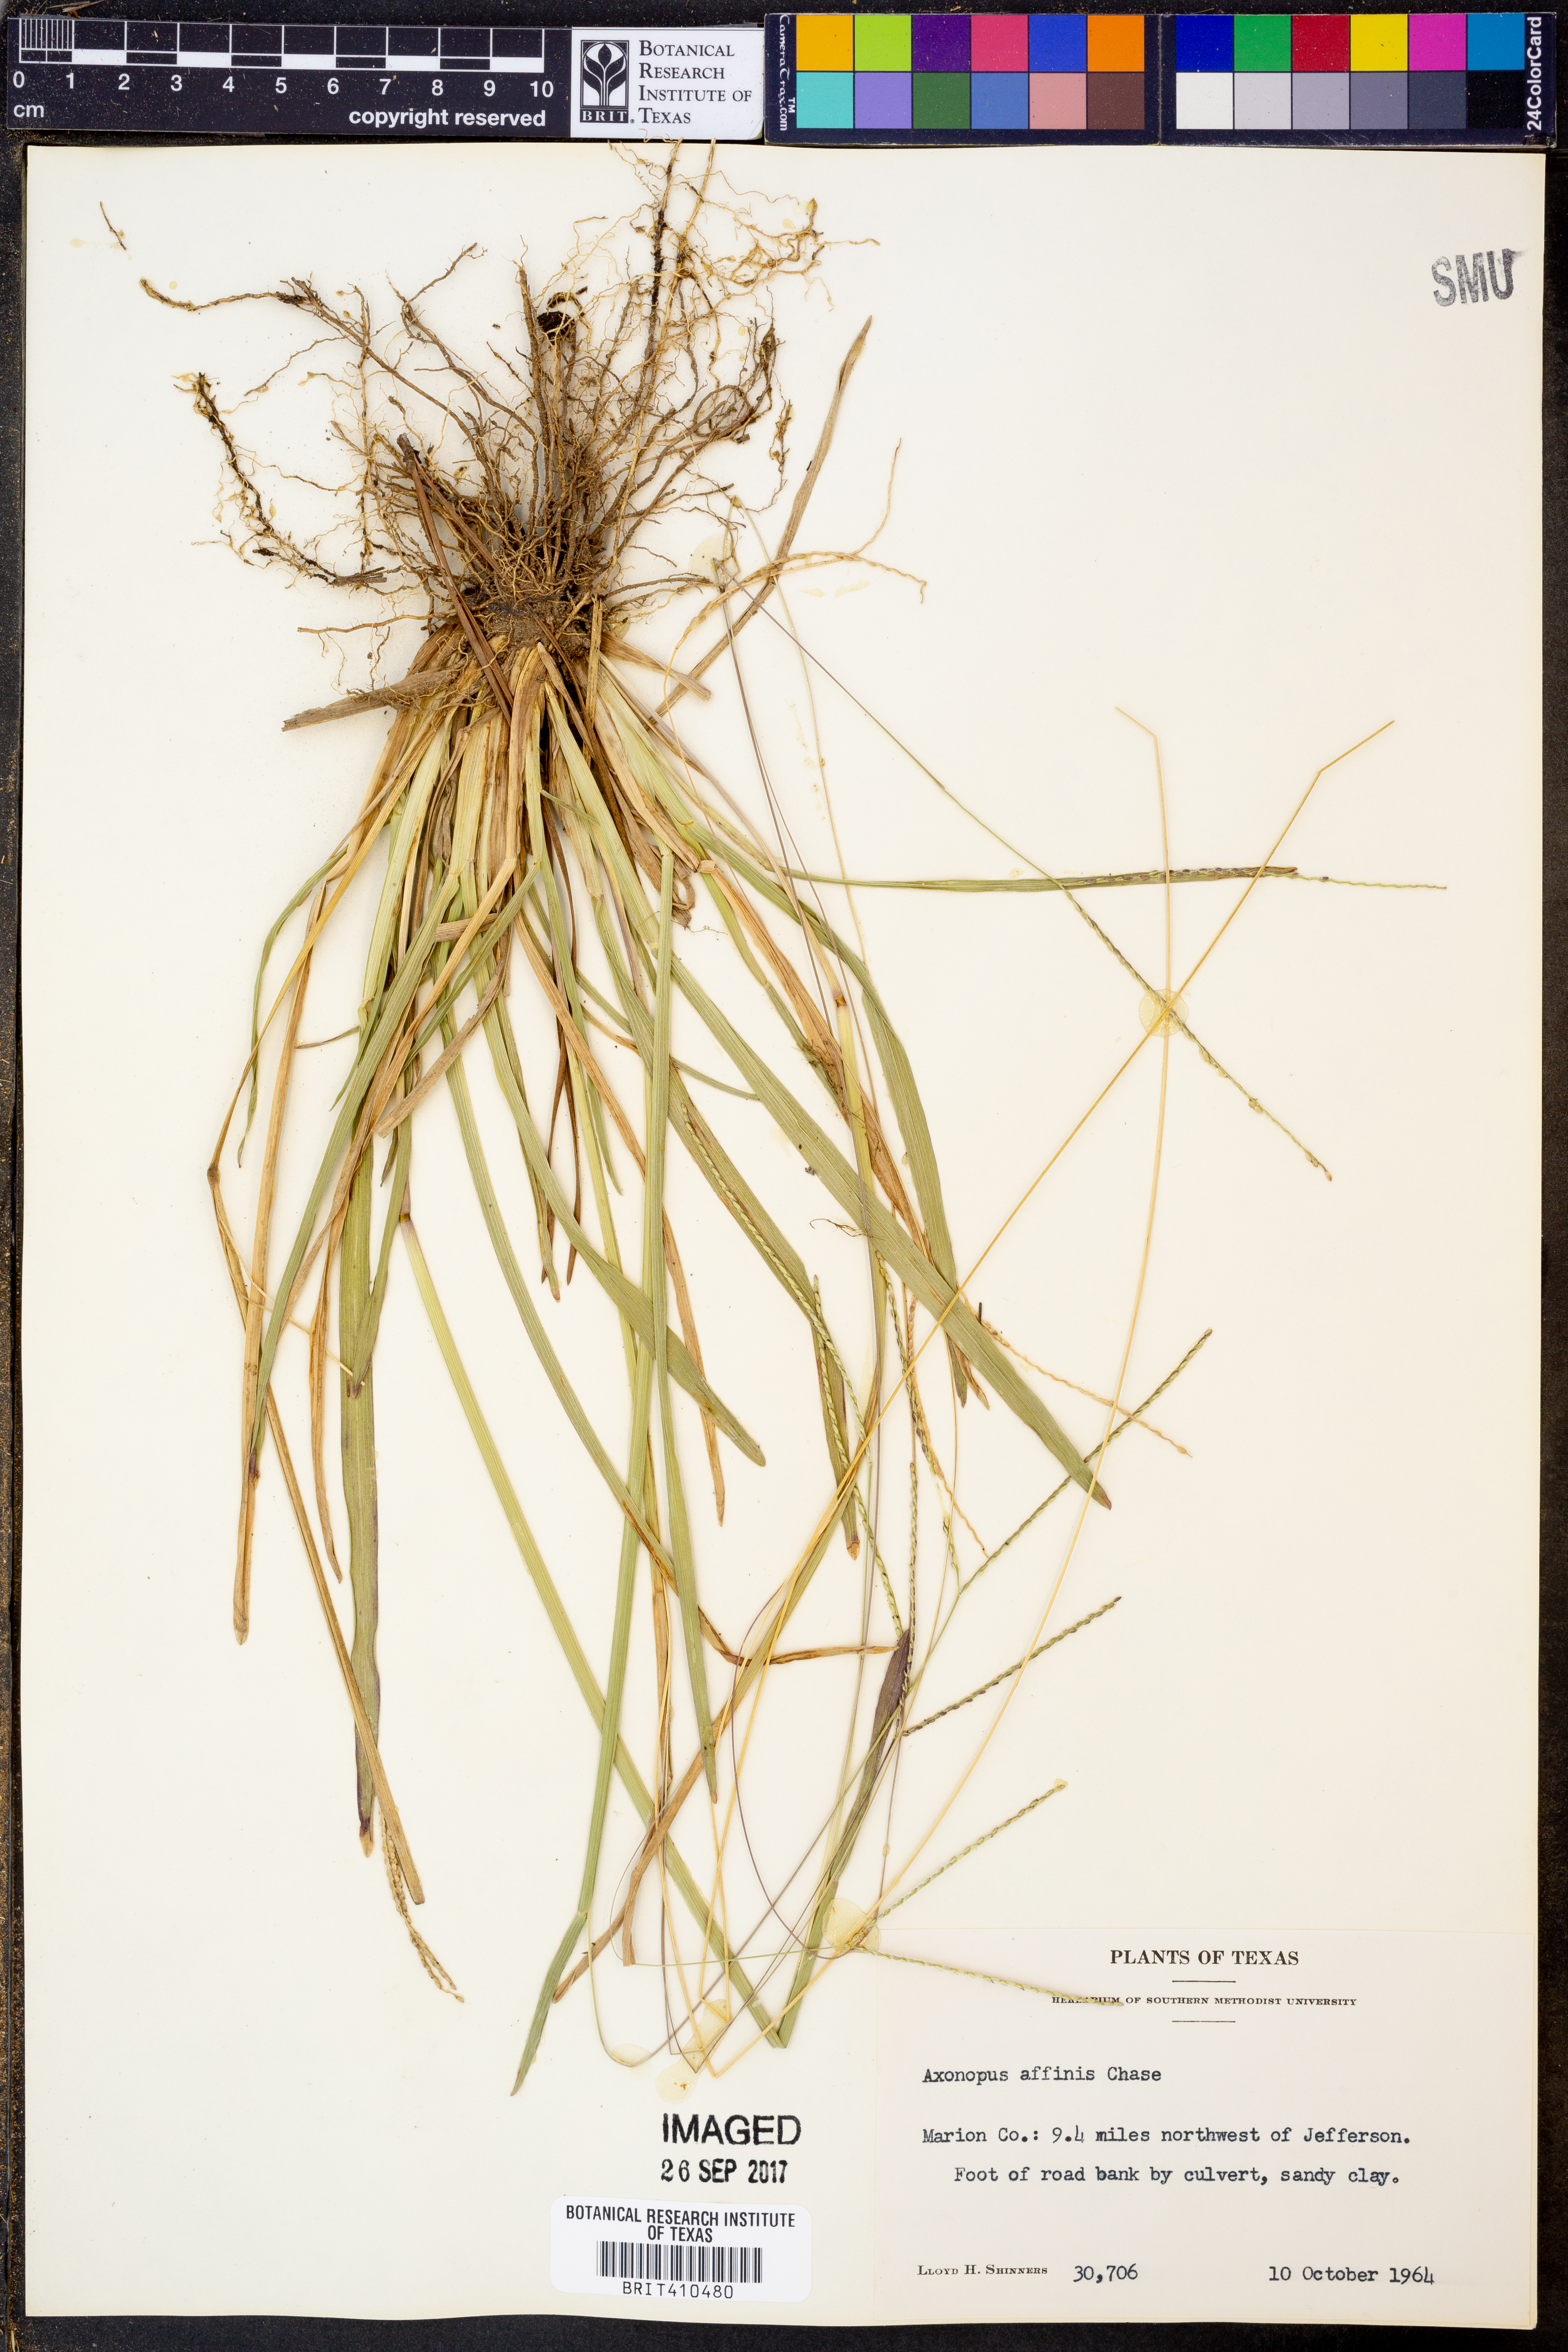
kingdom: Plantae
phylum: Tracheophyta
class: Liliopsida
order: Poales
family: Poaceae
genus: Axonopus
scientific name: Axonopus fissifolius
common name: Common carpetgrass
